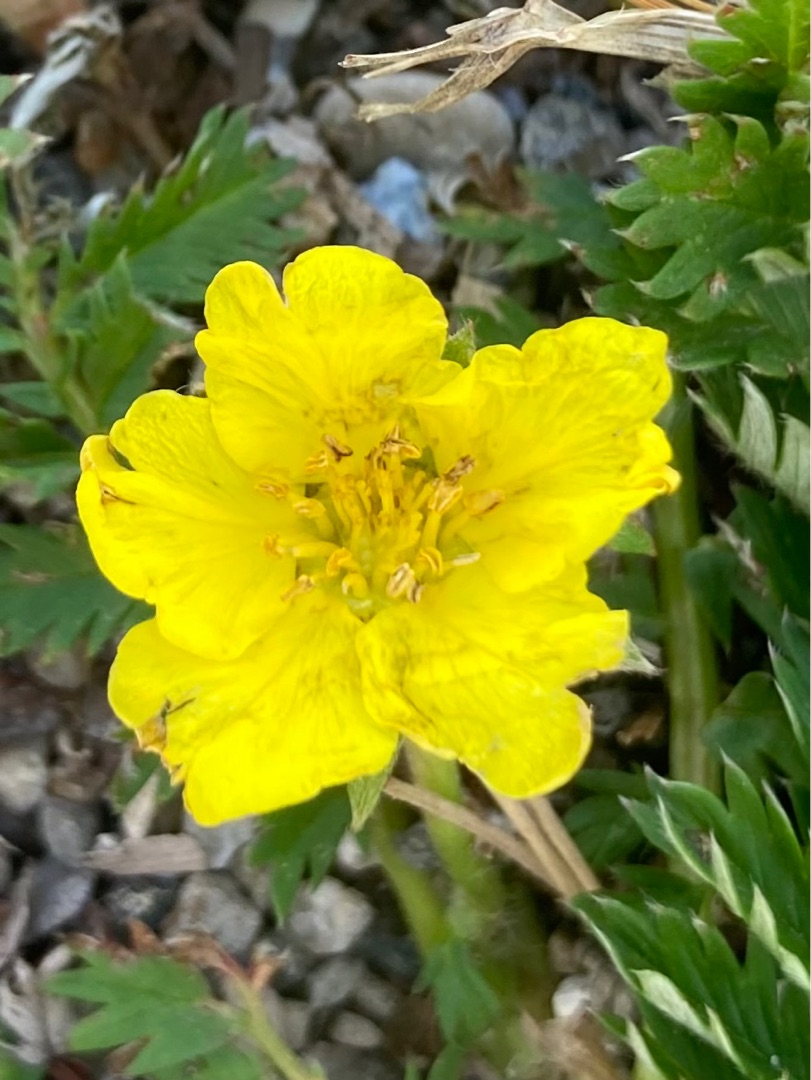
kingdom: Plantae
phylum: Tracheophyta
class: Magnoliopsida
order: Rosales
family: Rosaceae
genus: Argentina
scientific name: Argentina anserina
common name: Gåsepotentil
